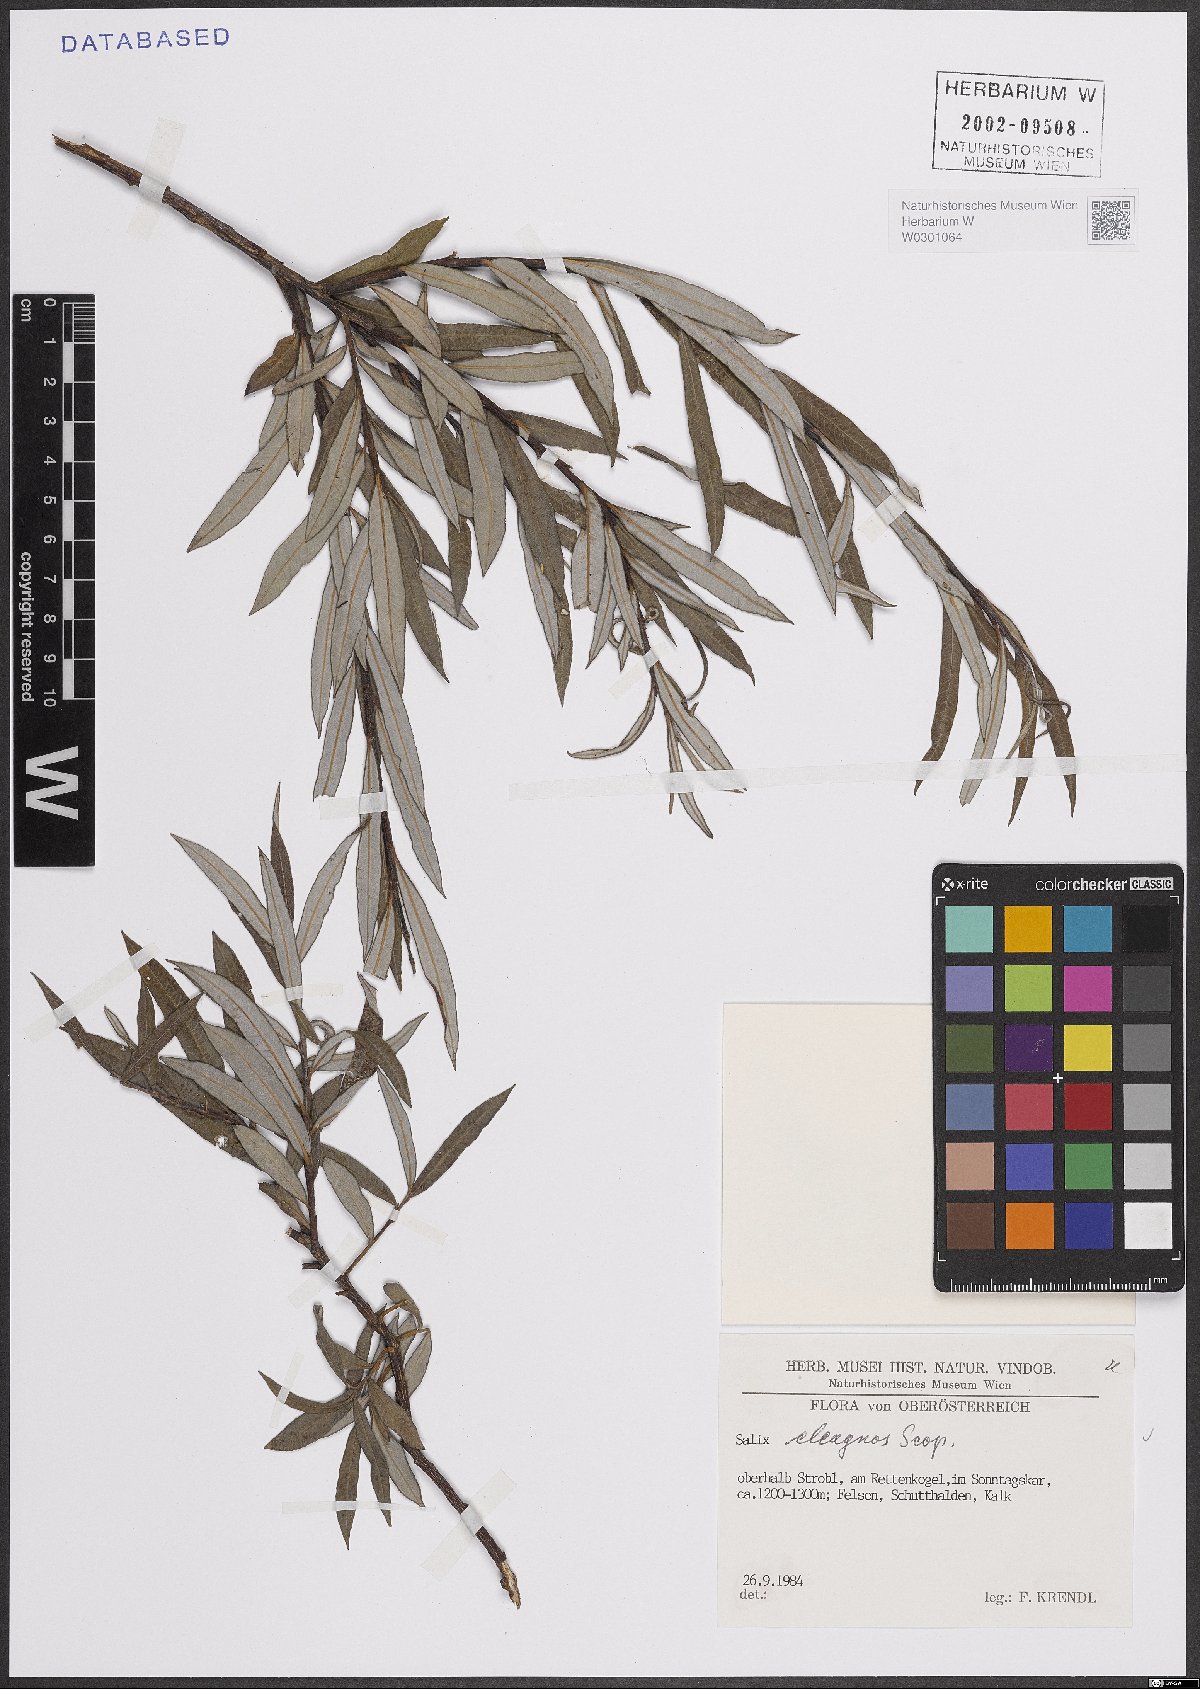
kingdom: Plantae
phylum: Tracheophyta
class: Magnoliopsida
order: Malpighiales
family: Salicaceae
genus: Salix
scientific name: Salix eleagnos
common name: Elaeagnus willow
